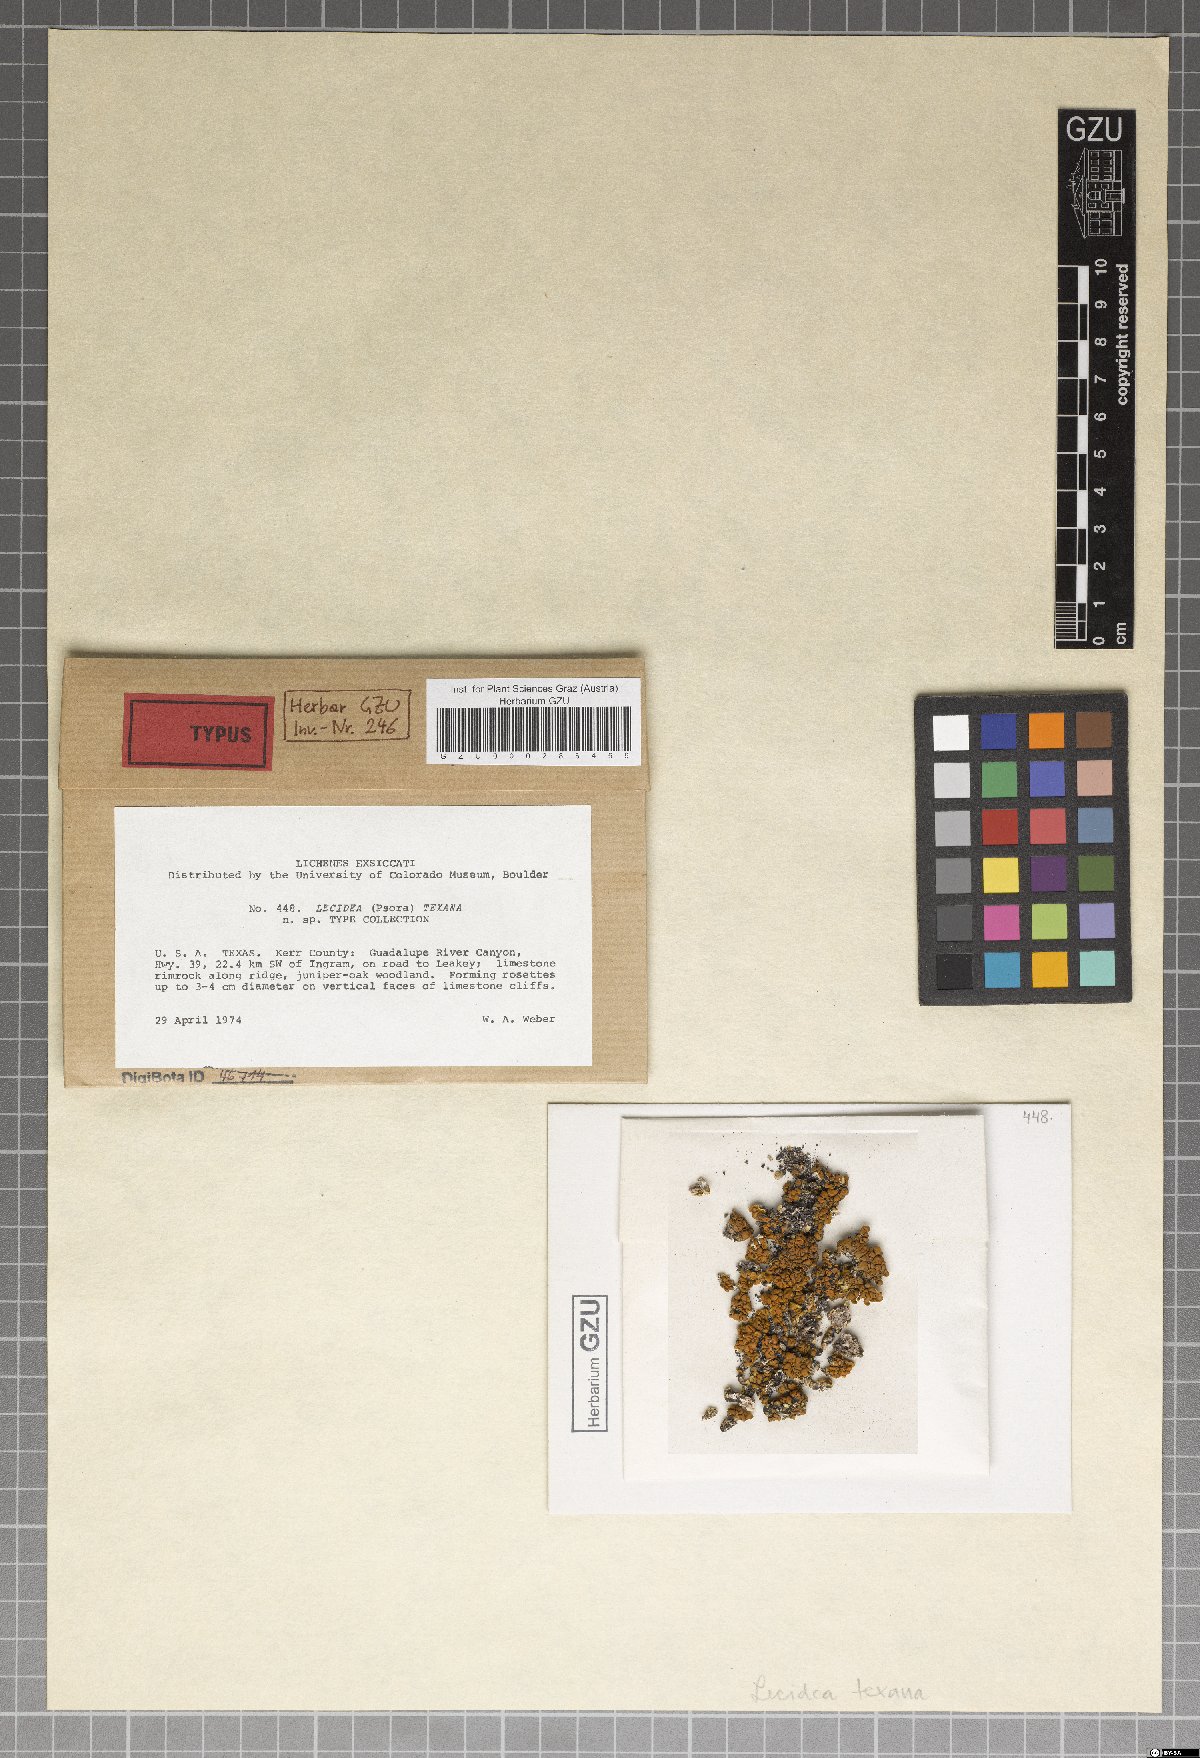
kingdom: Fungi
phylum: Ascomycota
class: Lecanoromycetes
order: Lecanorales
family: Catillariaceae
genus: Xanthopsorella
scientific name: Xanthopsorella texana
